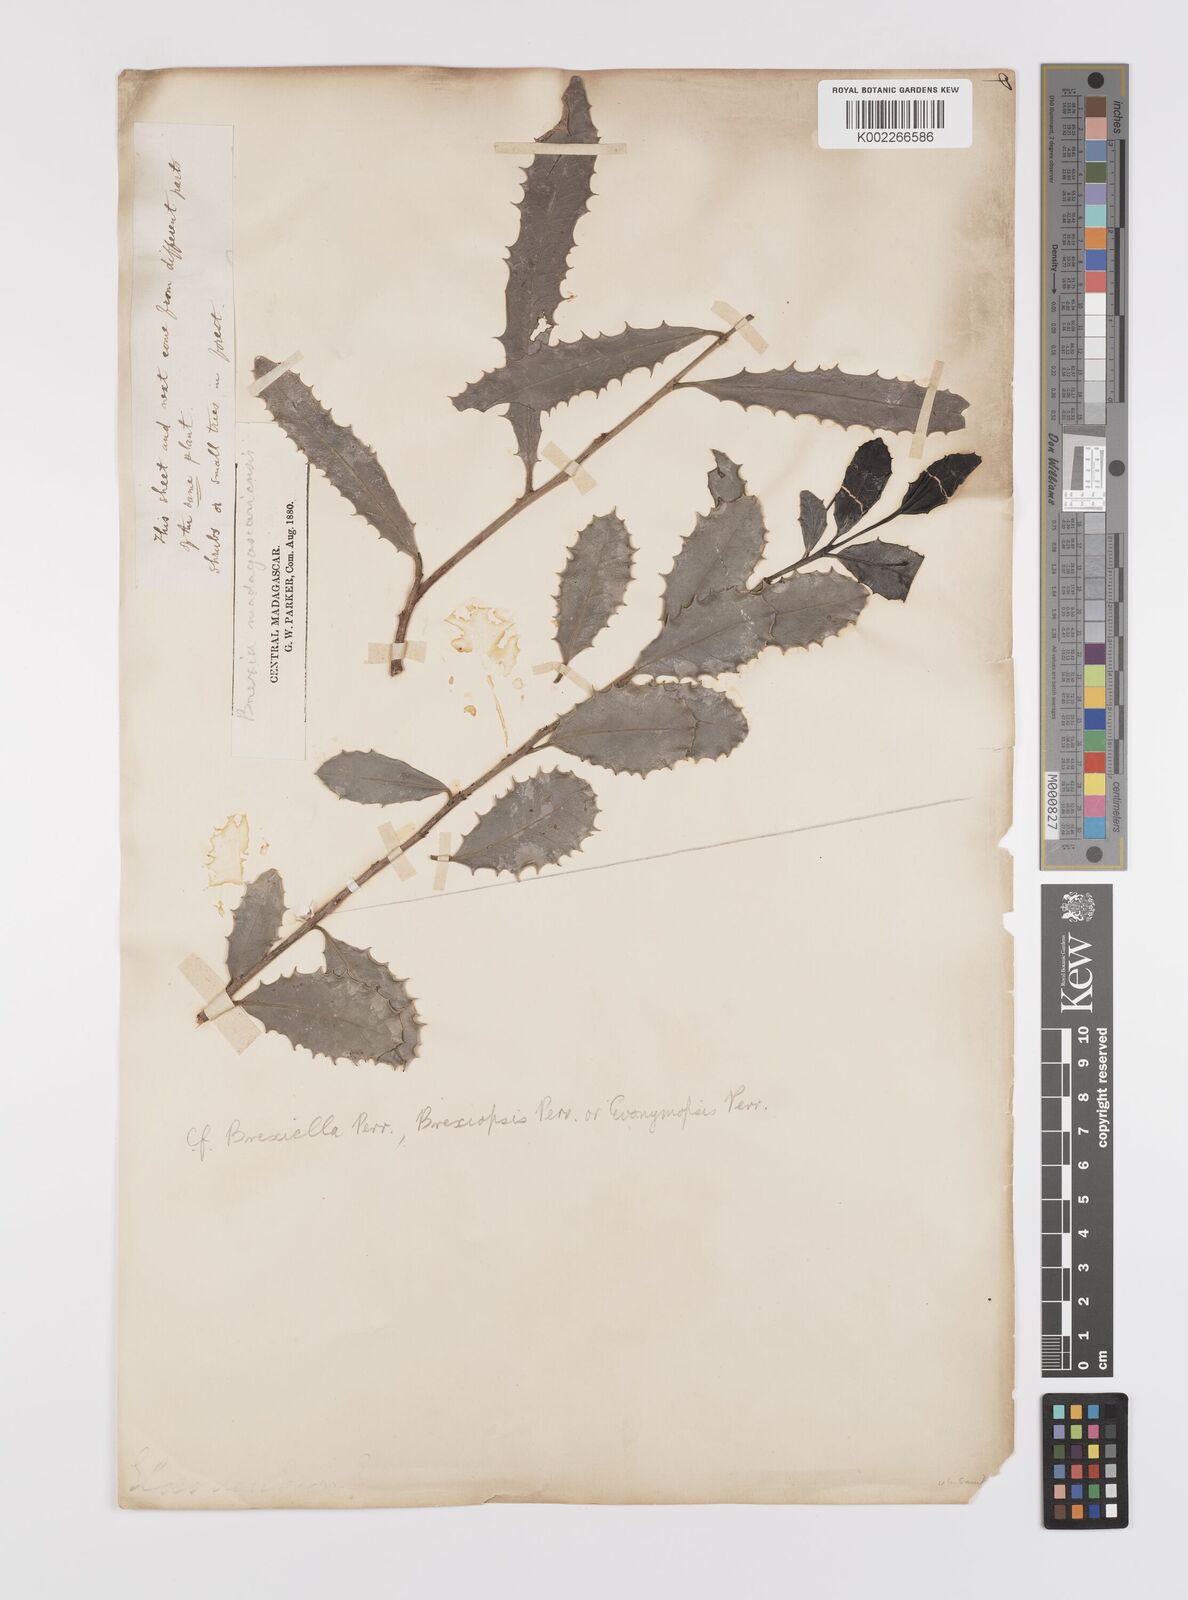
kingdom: Plantae
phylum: Tracheophyta
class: Magnoliopsida
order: Celastrales
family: Celastraceae
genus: Brexia
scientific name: Brexia madagascariensis
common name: Brexia
